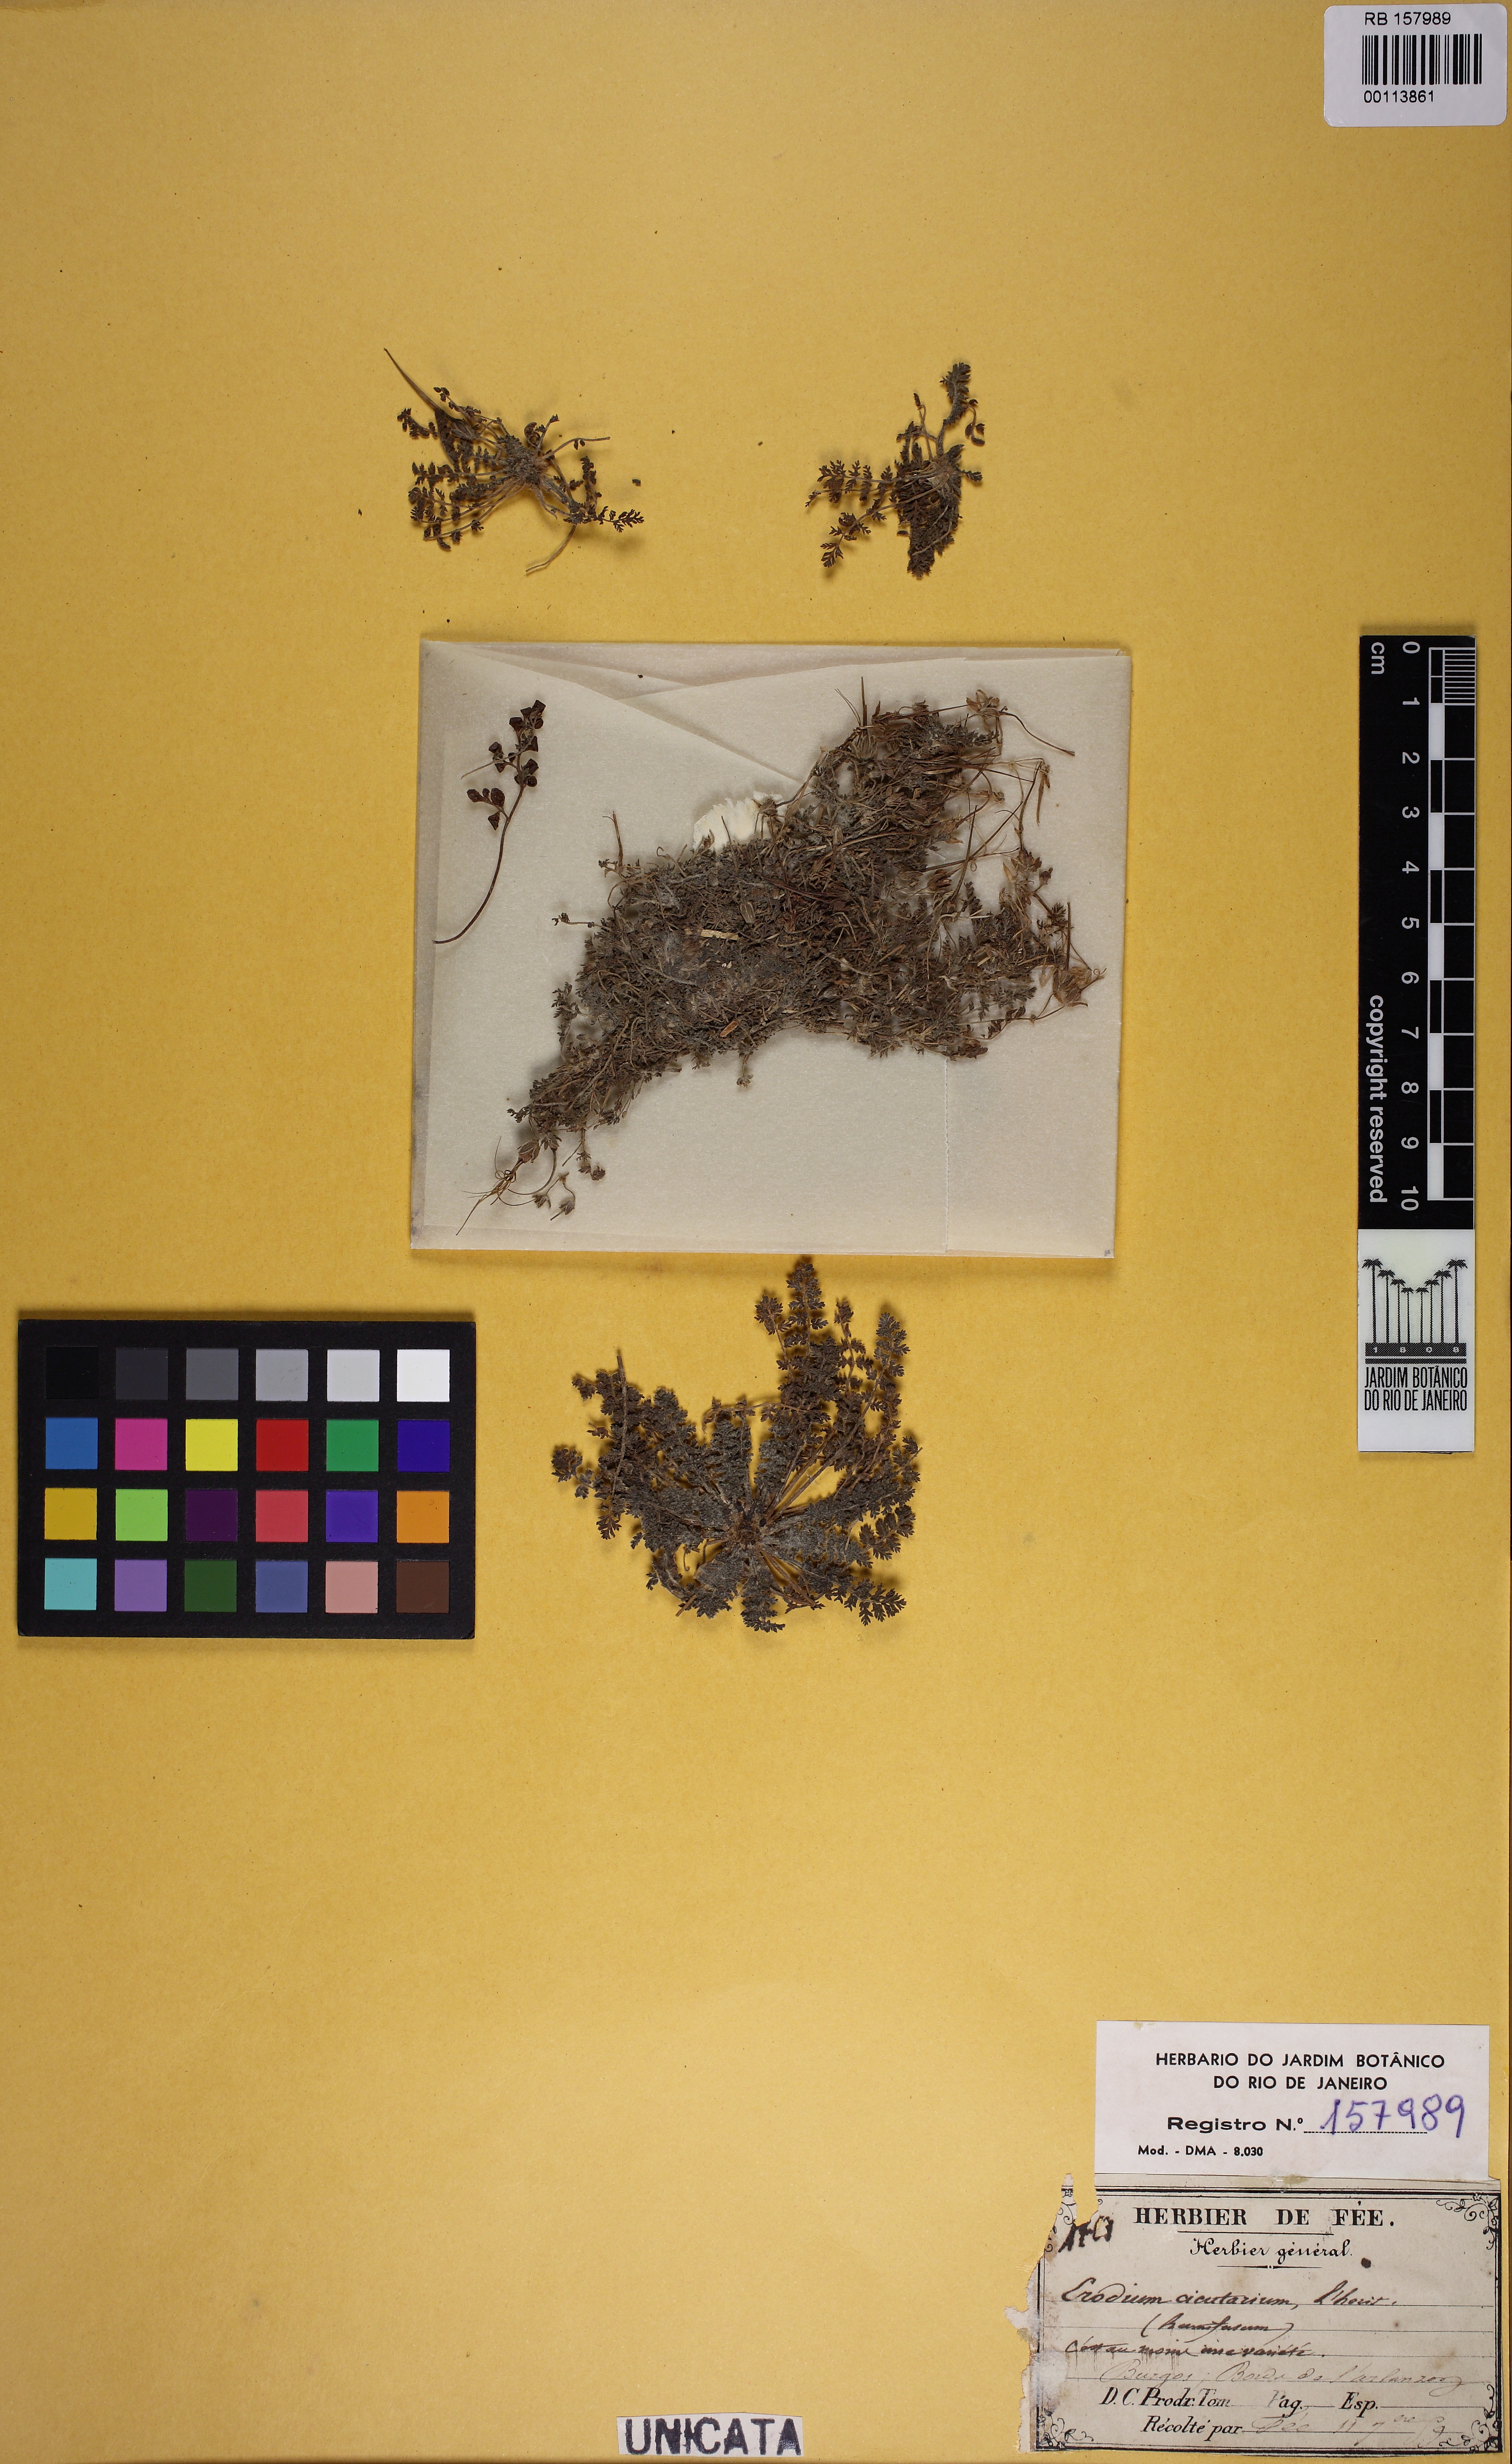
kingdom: Plantae
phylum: Tracheophyta
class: Magnoliopsida
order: Geraniales
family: Geraniaceae
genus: Erodium
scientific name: Erodium cicutarium
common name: Common stork's-bill
